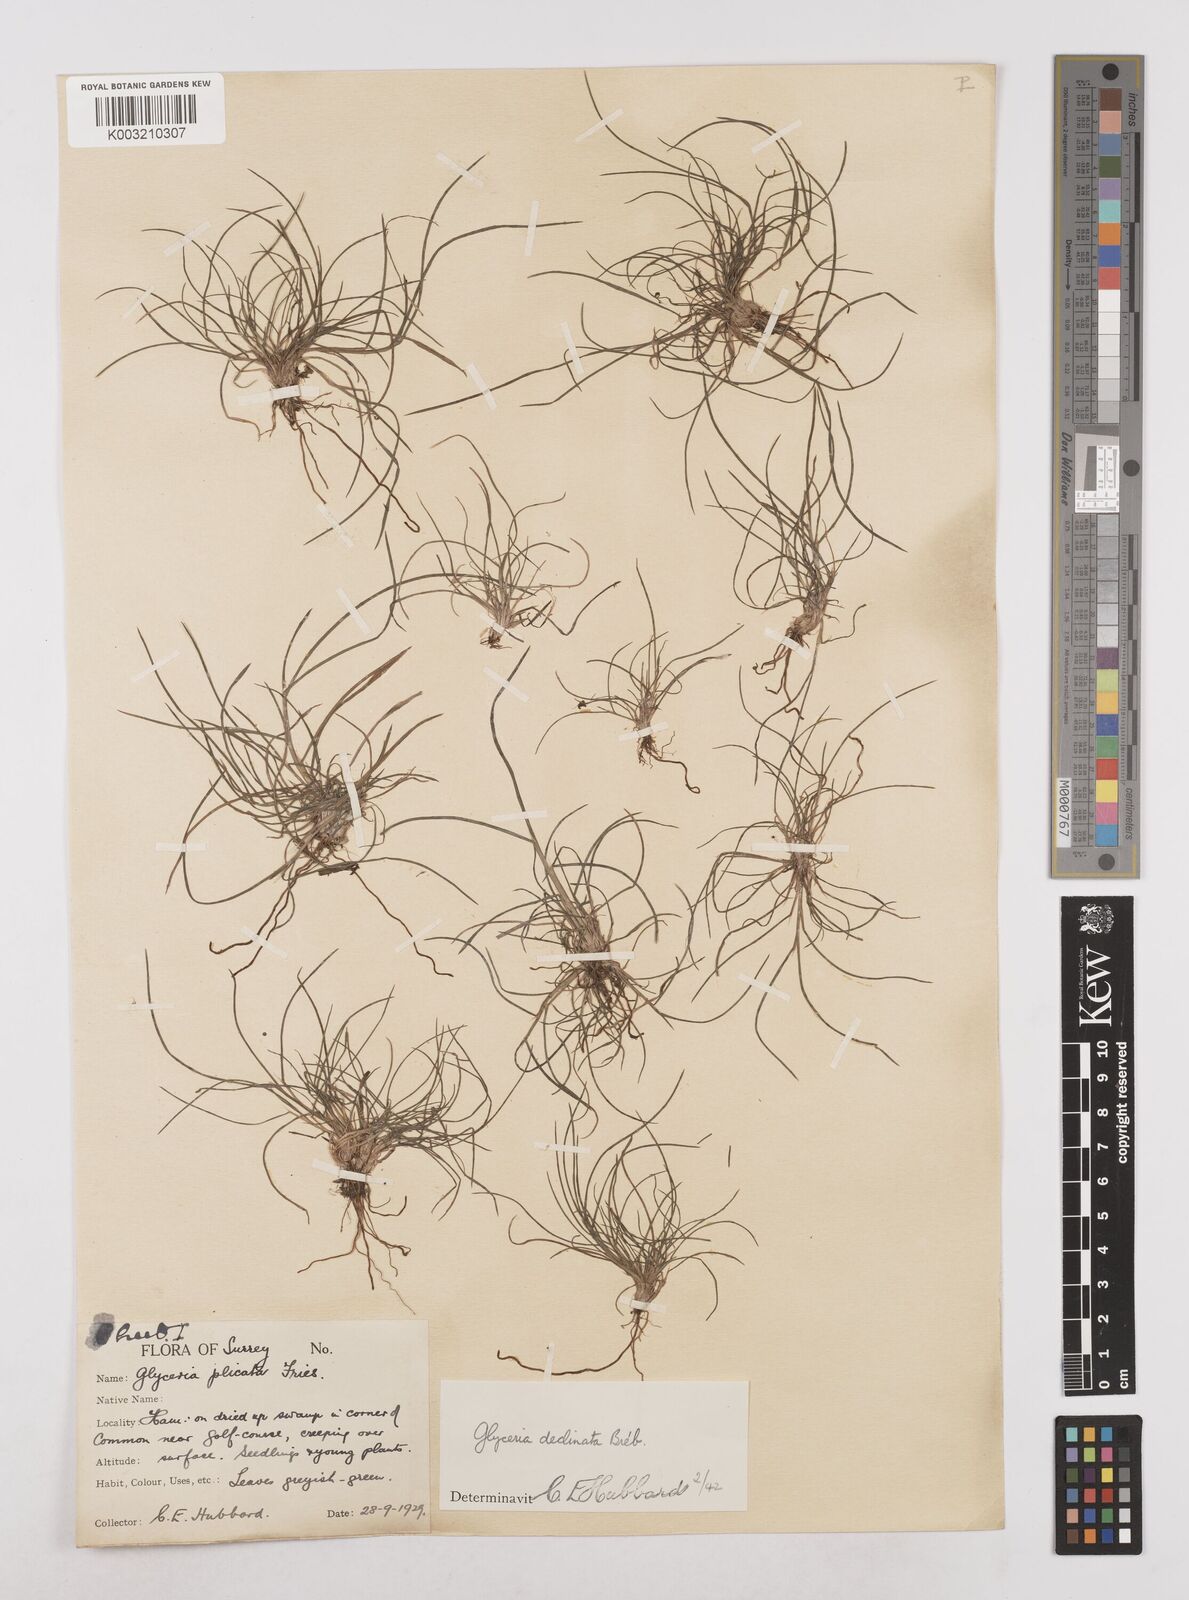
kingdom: Plantae
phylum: Tracheophyta
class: Liliopsida
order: Poales
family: Poaceae
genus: Glyceria
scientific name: Glyceria declinata
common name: Small sweet-grass
